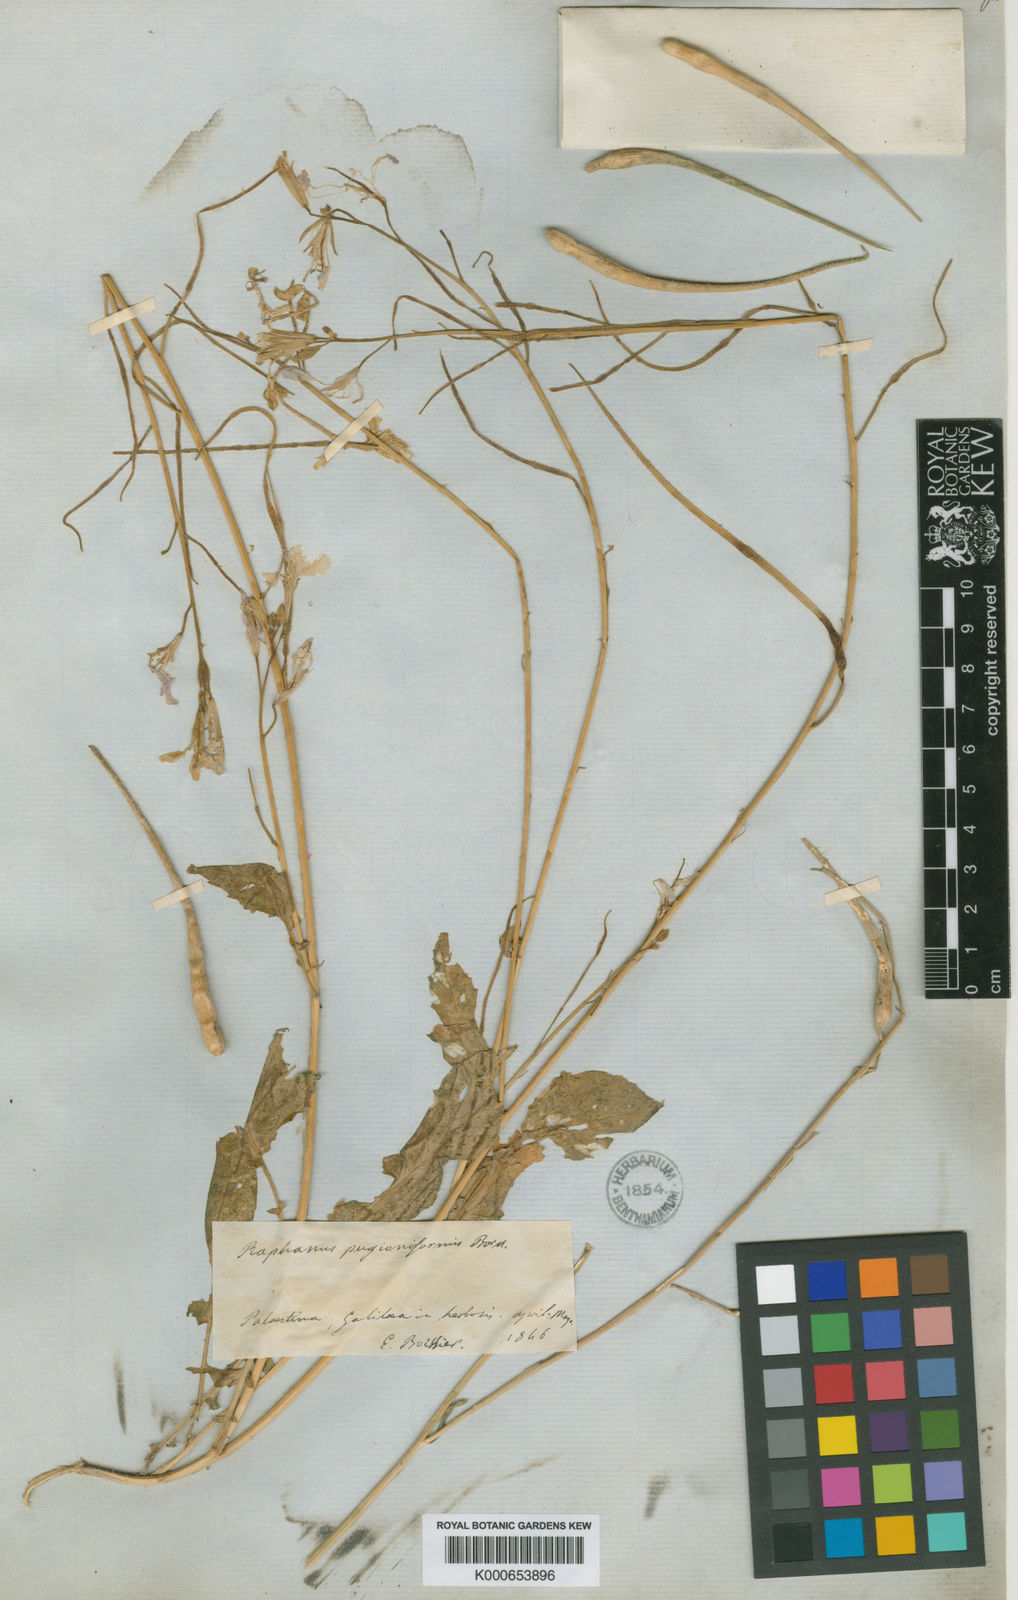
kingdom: Plantae
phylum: Tracheophyta
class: Magnoliopsida
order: Brassicales
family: Brassicaceae
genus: Raphanus
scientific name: Raphanus raphanistrum
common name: Wild radish
